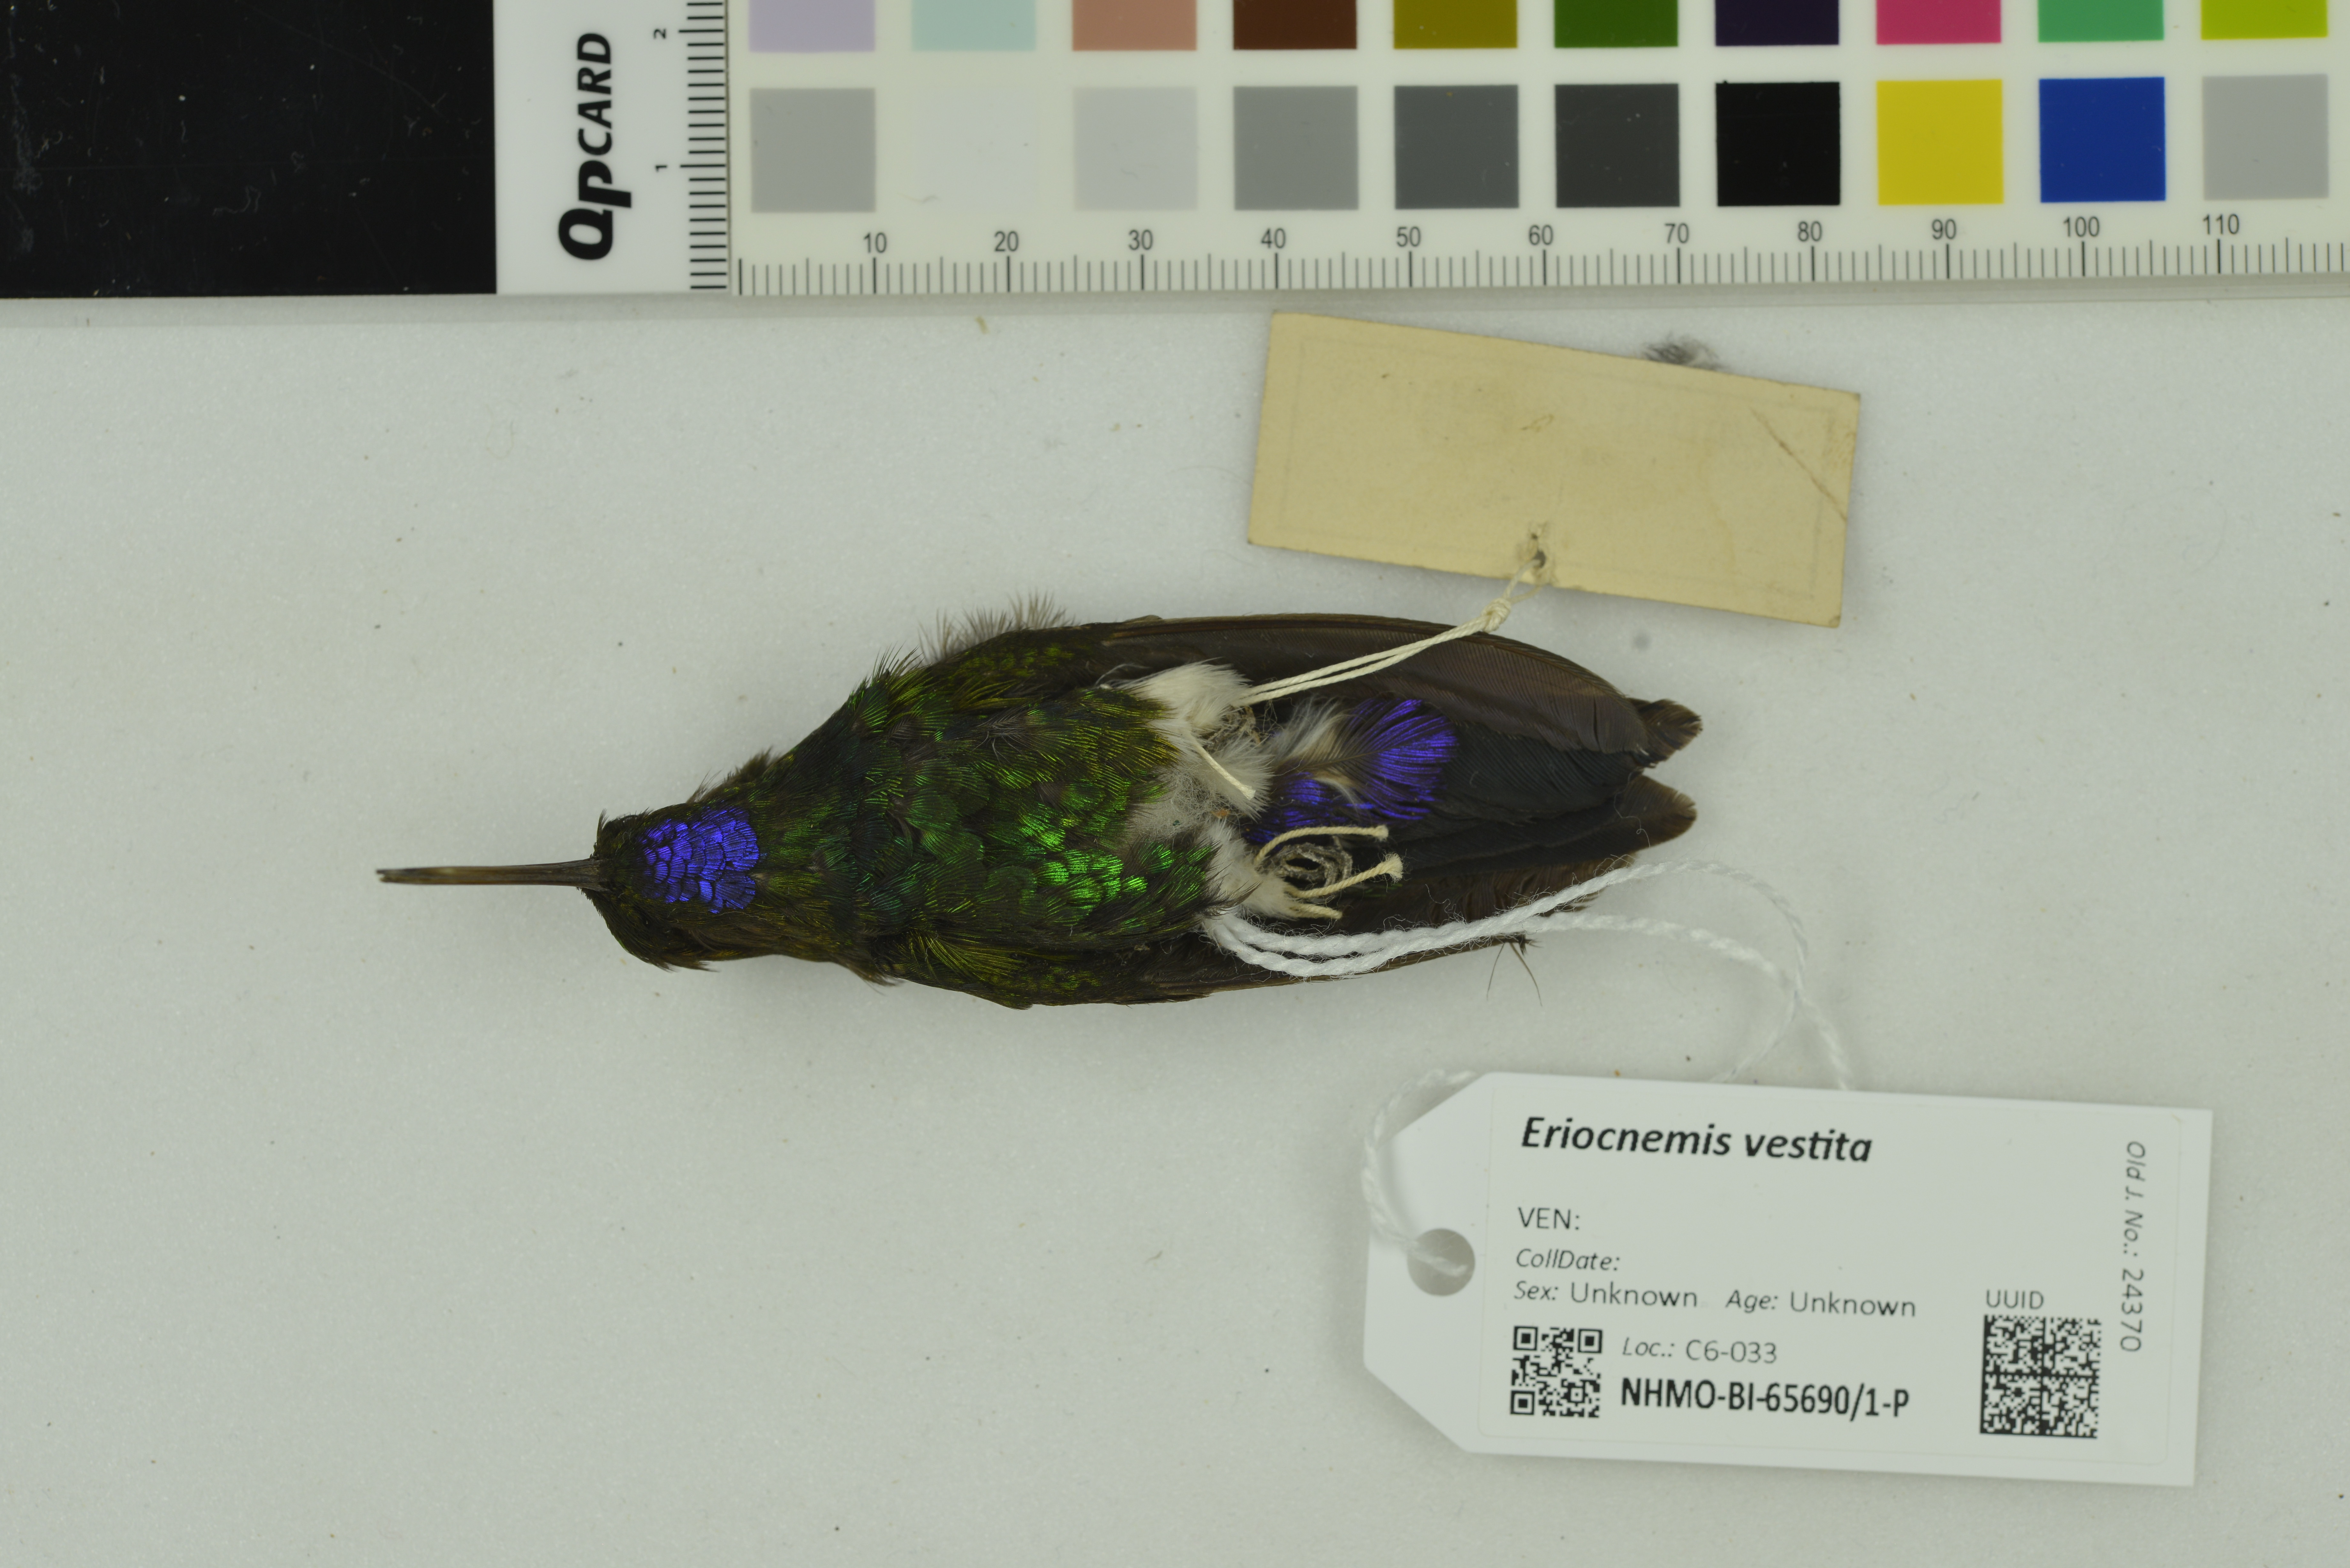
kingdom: Animalia
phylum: Chordata
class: Aves
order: Apodiformes
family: Trochilidae
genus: Eriocnemis
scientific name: Eriocnemis vestita
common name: Glowing puffleg
